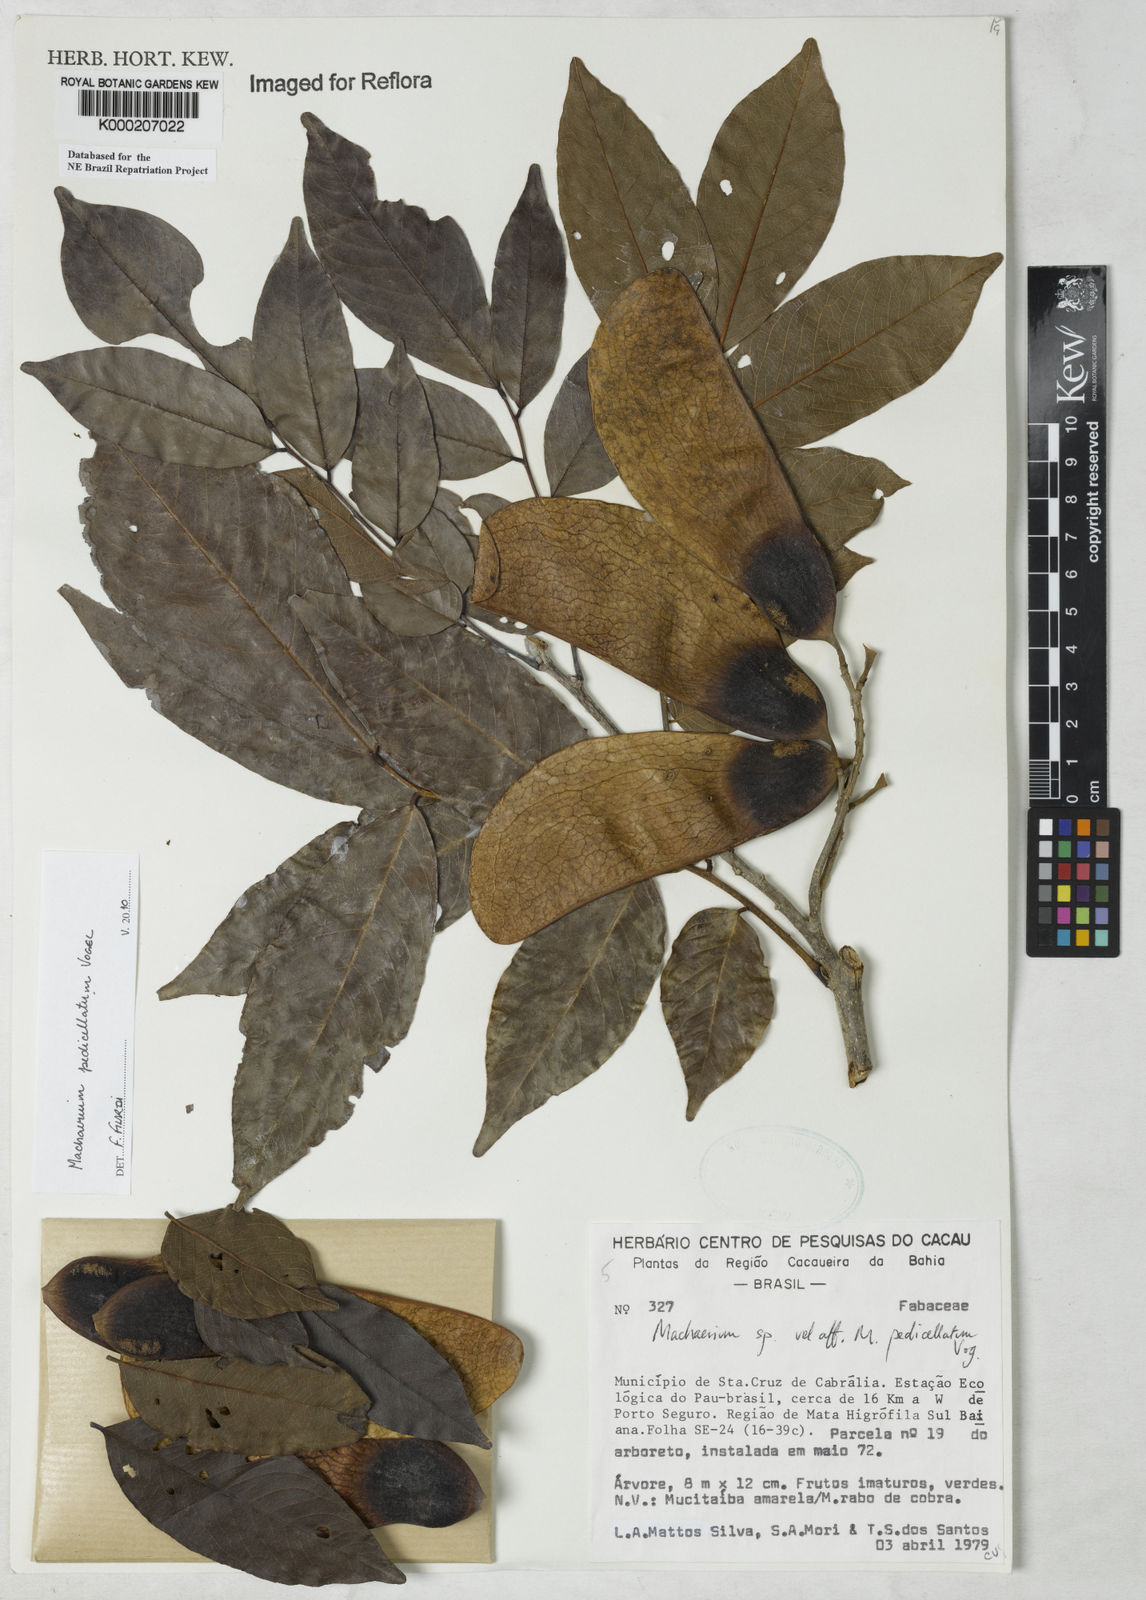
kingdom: Plantae
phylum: Tracheophyta
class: Magnoliopsida
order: Fabales
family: Fabaceae
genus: Machaerium
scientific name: Machaerium pedicellatum
